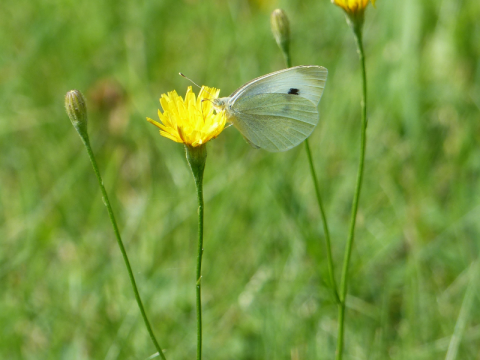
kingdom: Animalia
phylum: Arthropoda
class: Insecta
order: Lepidoptera
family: Pieridae
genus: Pieris
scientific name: Pieris rapae
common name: Cabbage White
